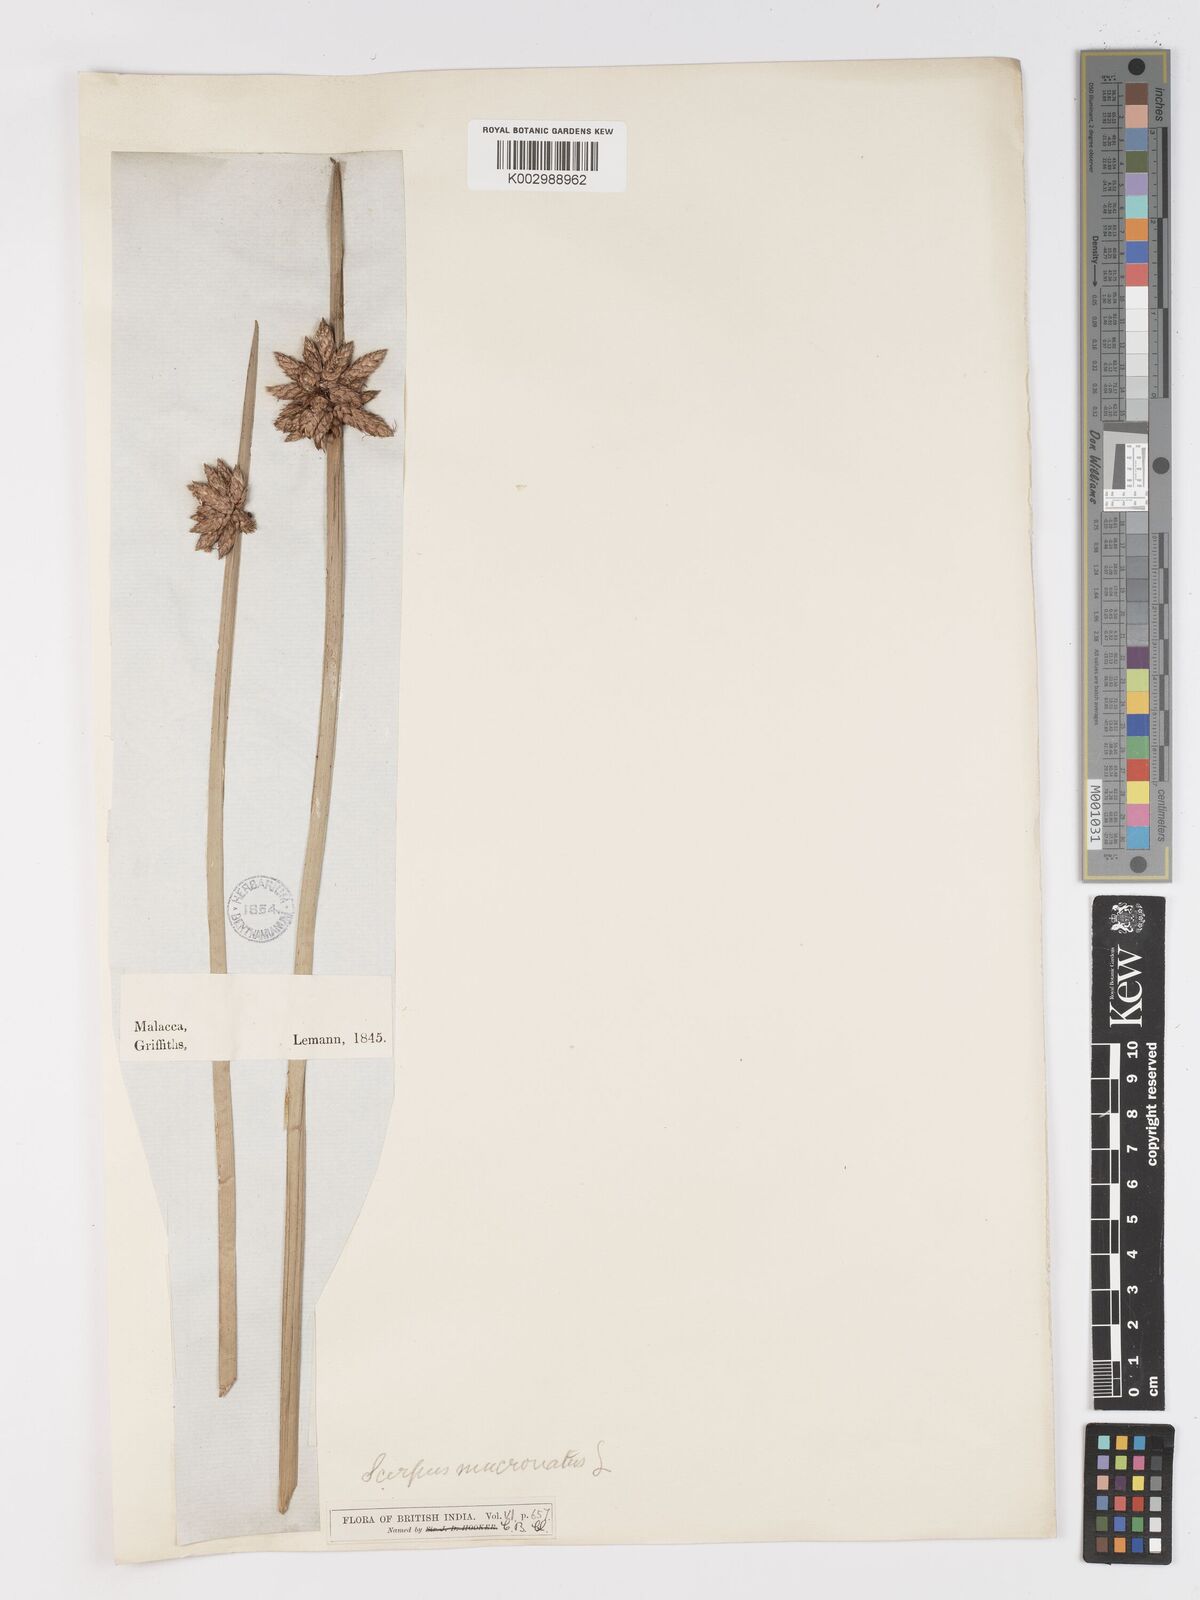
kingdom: Plantae
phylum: Tracheophyta
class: Liliopsida
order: Poales
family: Cyperaceae
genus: Schoenoplectiella
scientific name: Schoenoplectiella mucronata
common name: Bog bulrush
